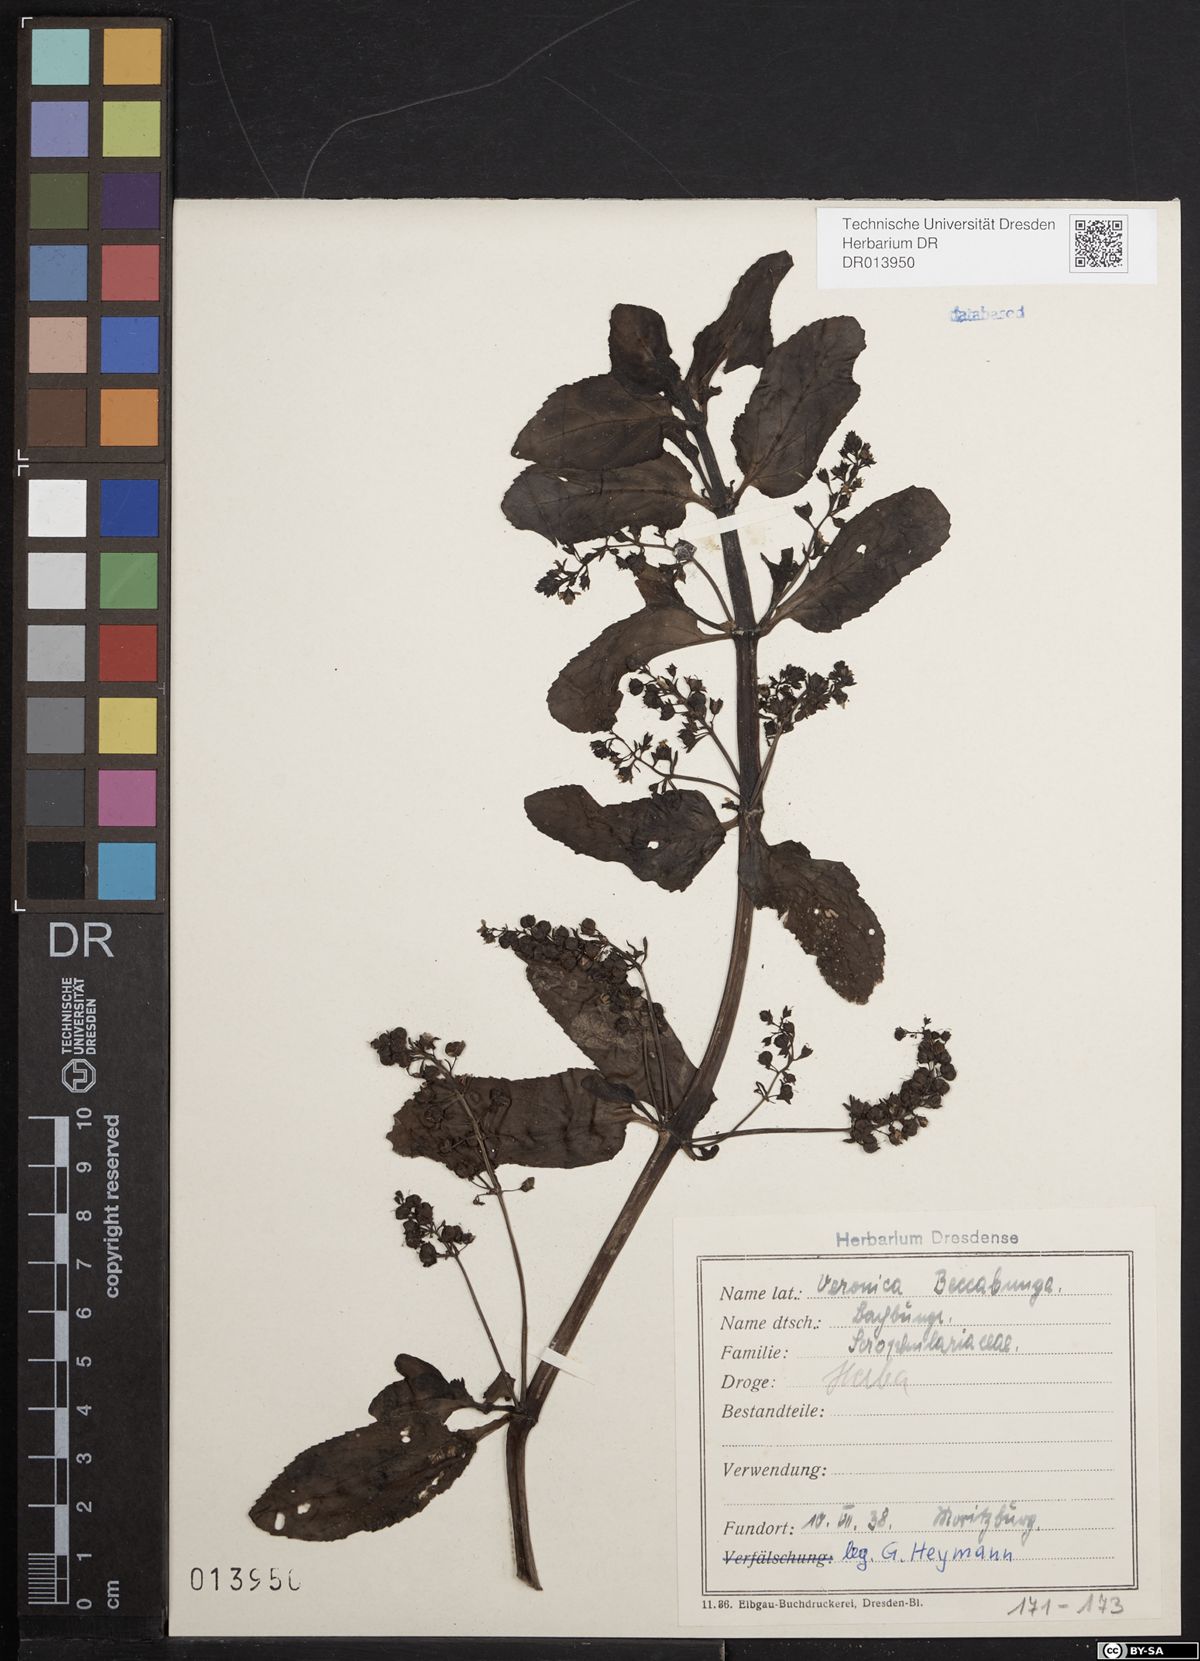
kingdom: Plantae
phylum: Tracheophyta
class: Magnoliopsida
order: Lamiales
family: Plantaginaceae
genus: Veronica
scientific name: Veronica beccabunga
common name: Brooklime
